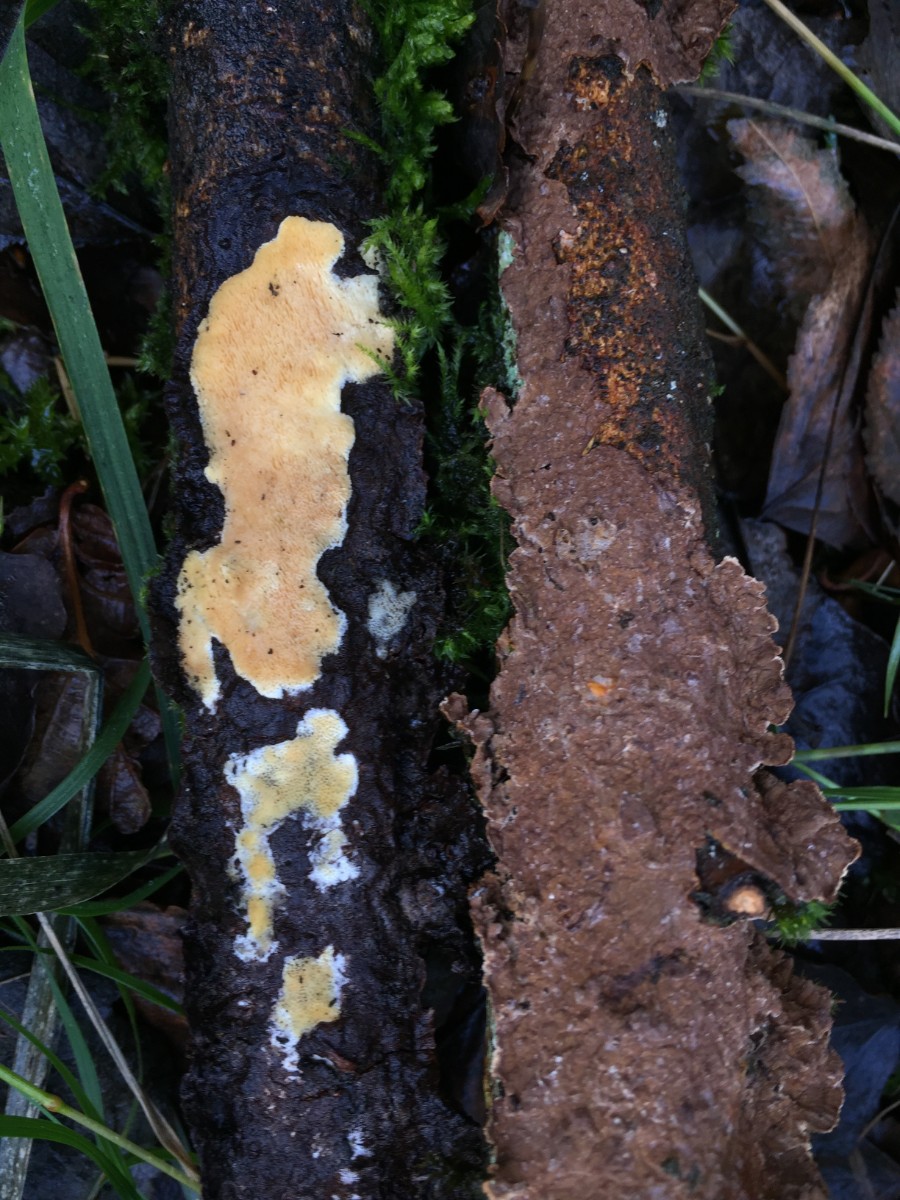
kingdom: Fungi
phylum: Basidiomycota
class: Agaricomycetes
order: Polyporales
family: Steccherinaceae
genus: Antella
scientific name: Antella niemelaei
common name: grovporet elastikporesvamp
